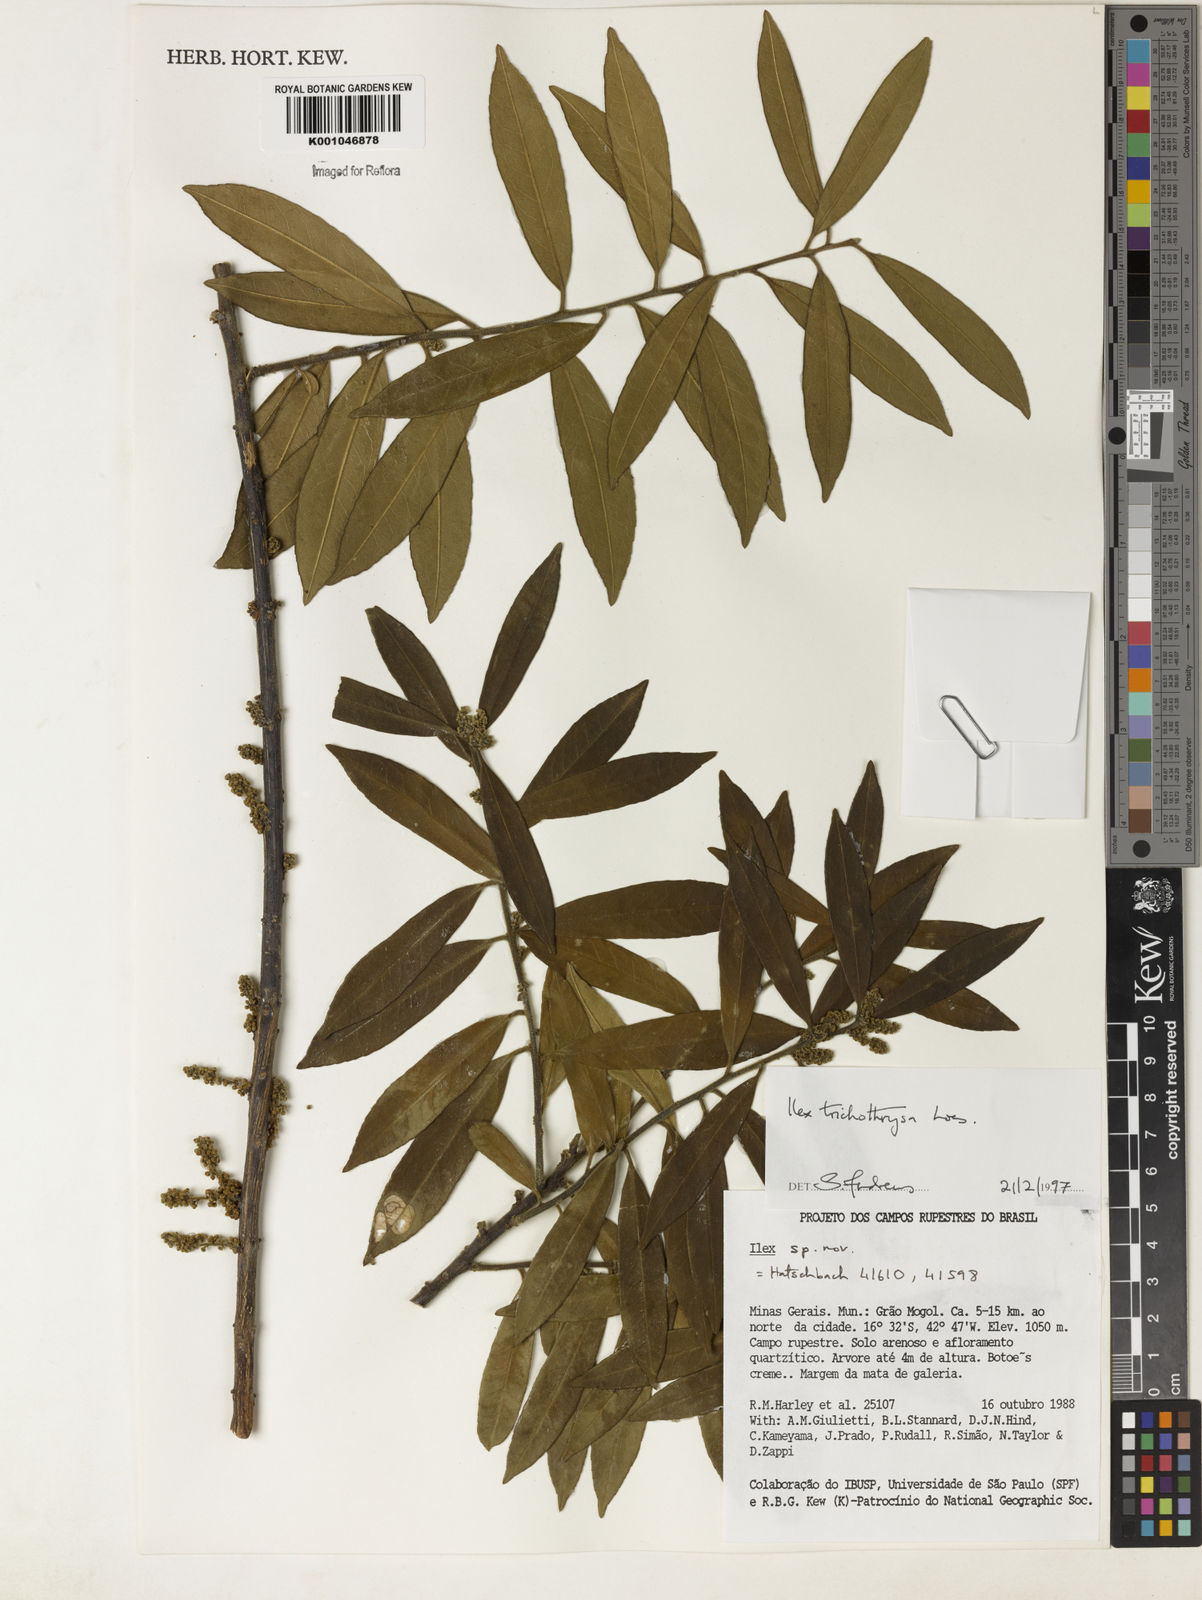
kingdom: Plantae
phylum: Tracheophyta
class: Magnoliopsida
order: Aquifoliales
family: Aquifoliaceae
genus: Ilex
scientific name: Ilex trichothyrsa
